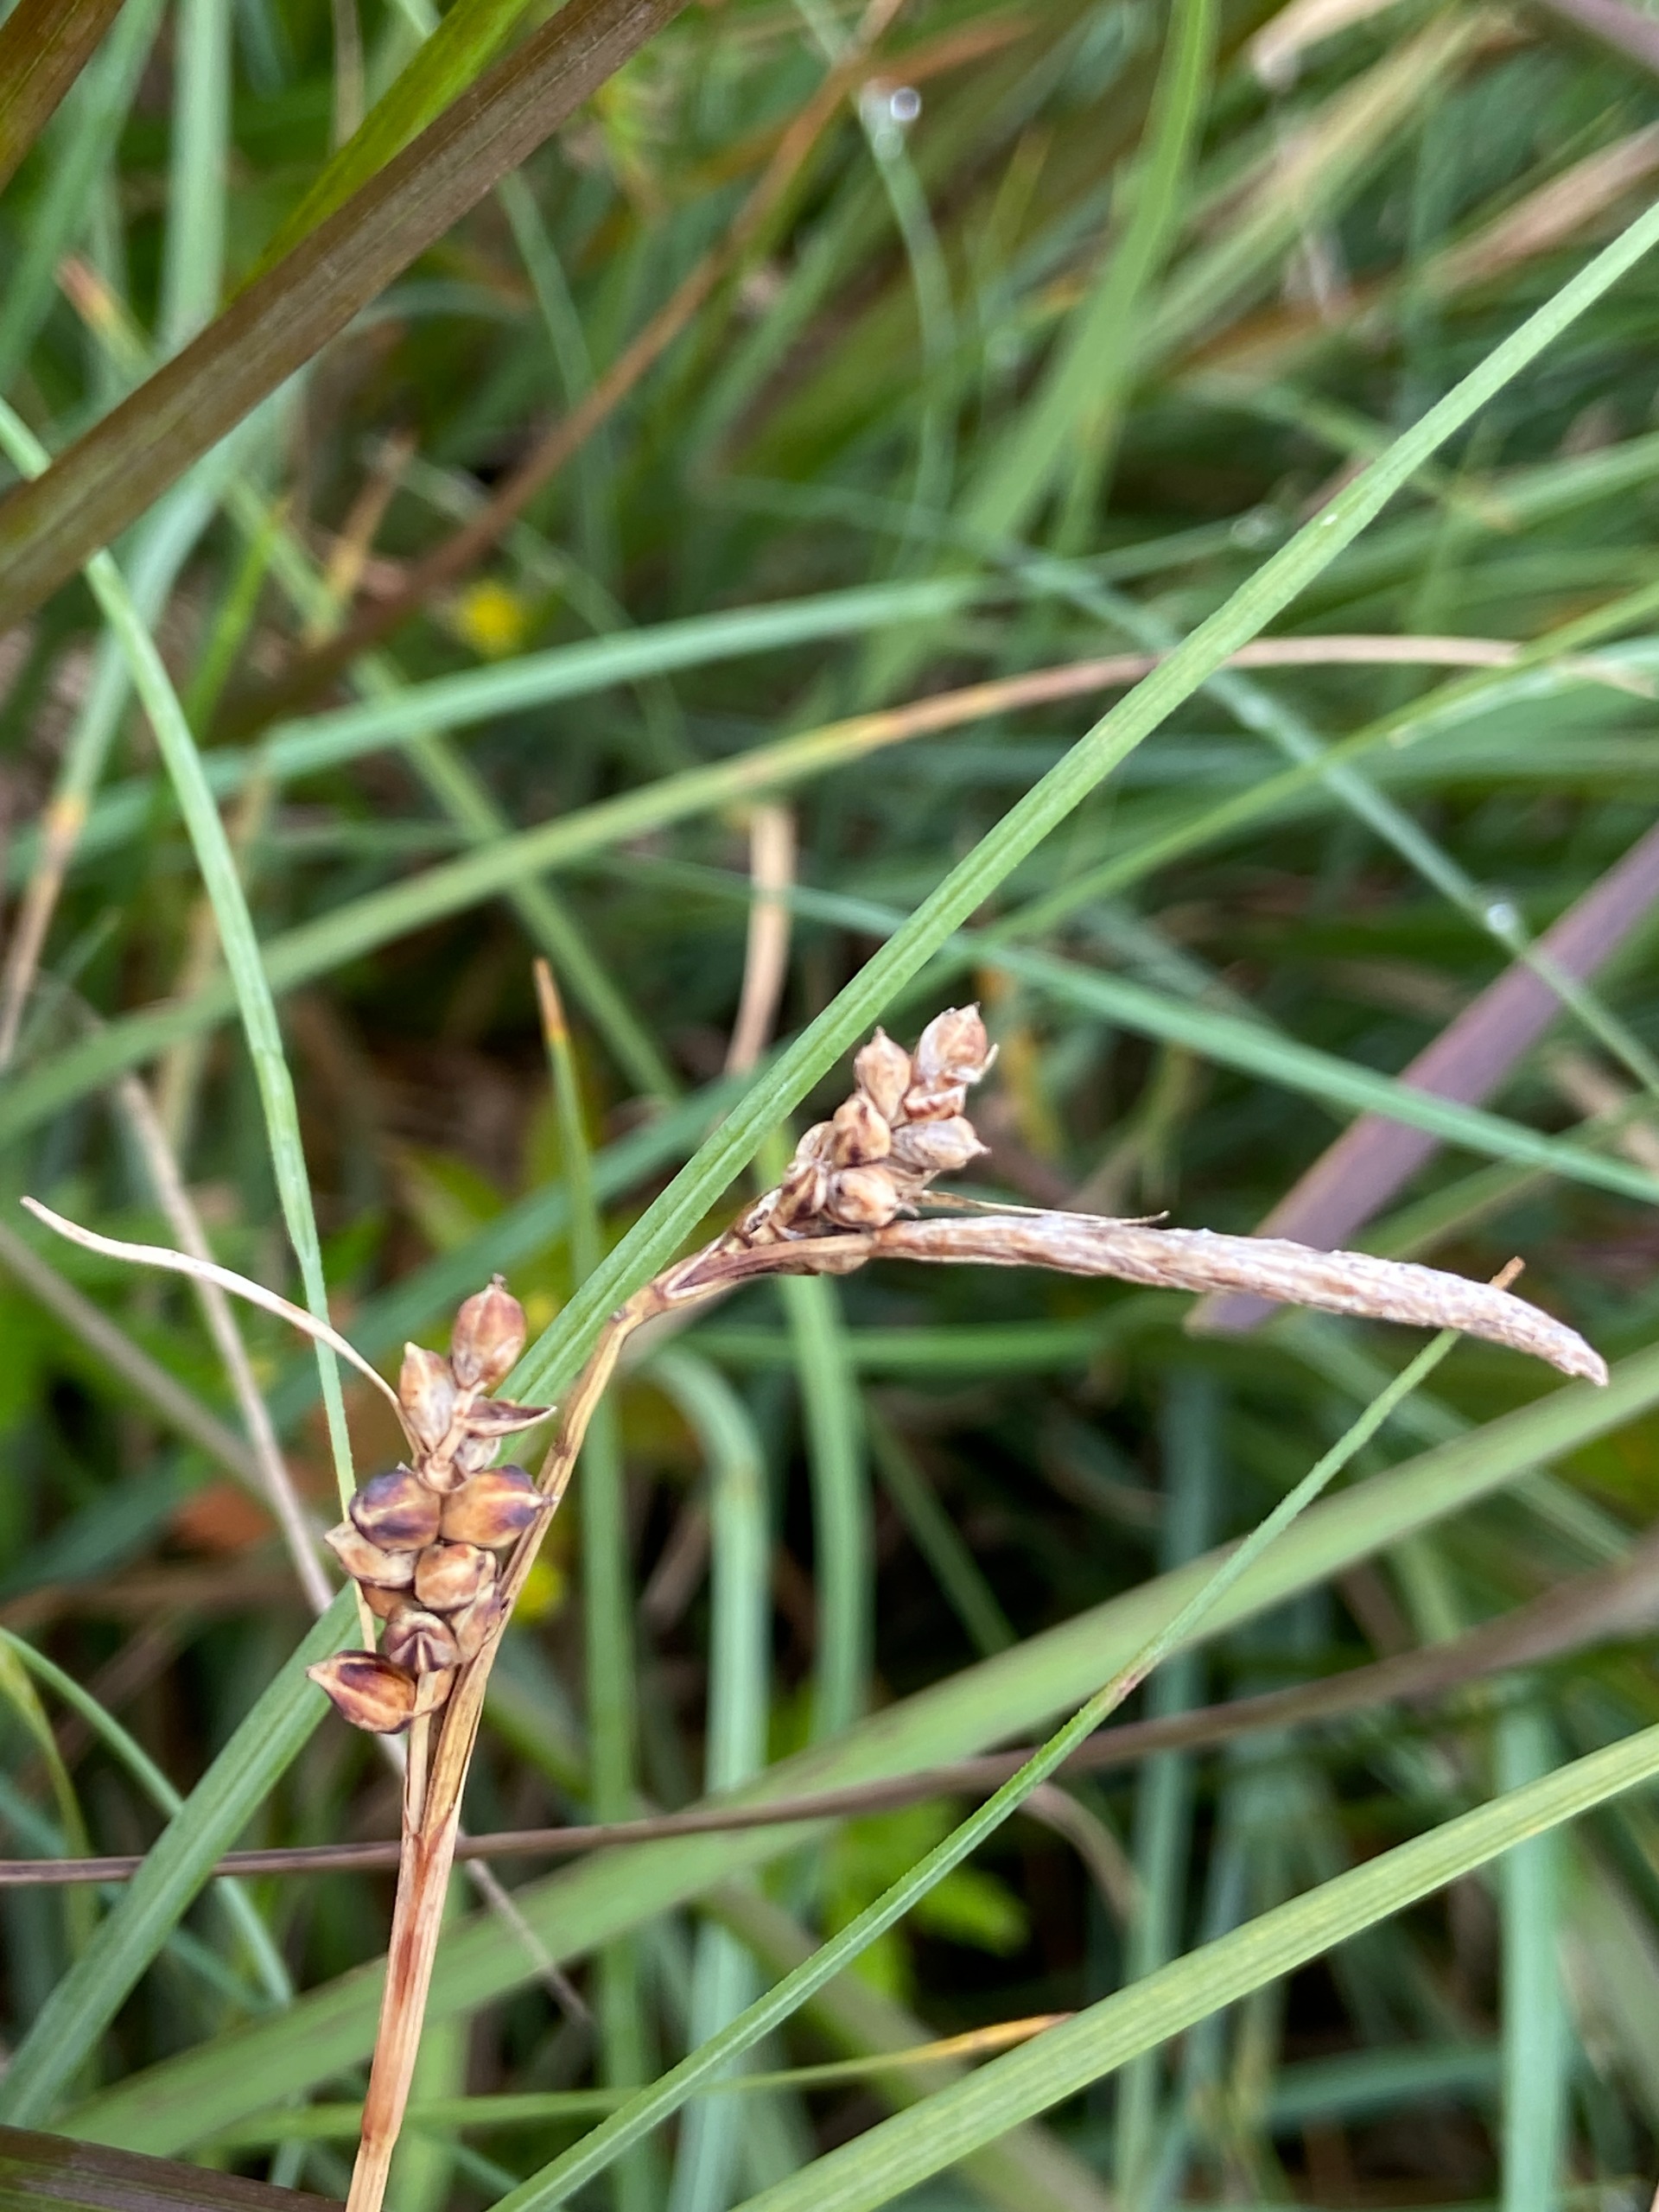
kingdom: Plantae
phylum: Tracheophyta
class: Liliopsida
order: Poales
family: Cyperaceae
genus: Carex
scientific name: Carex panicea
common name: Hirse-star
